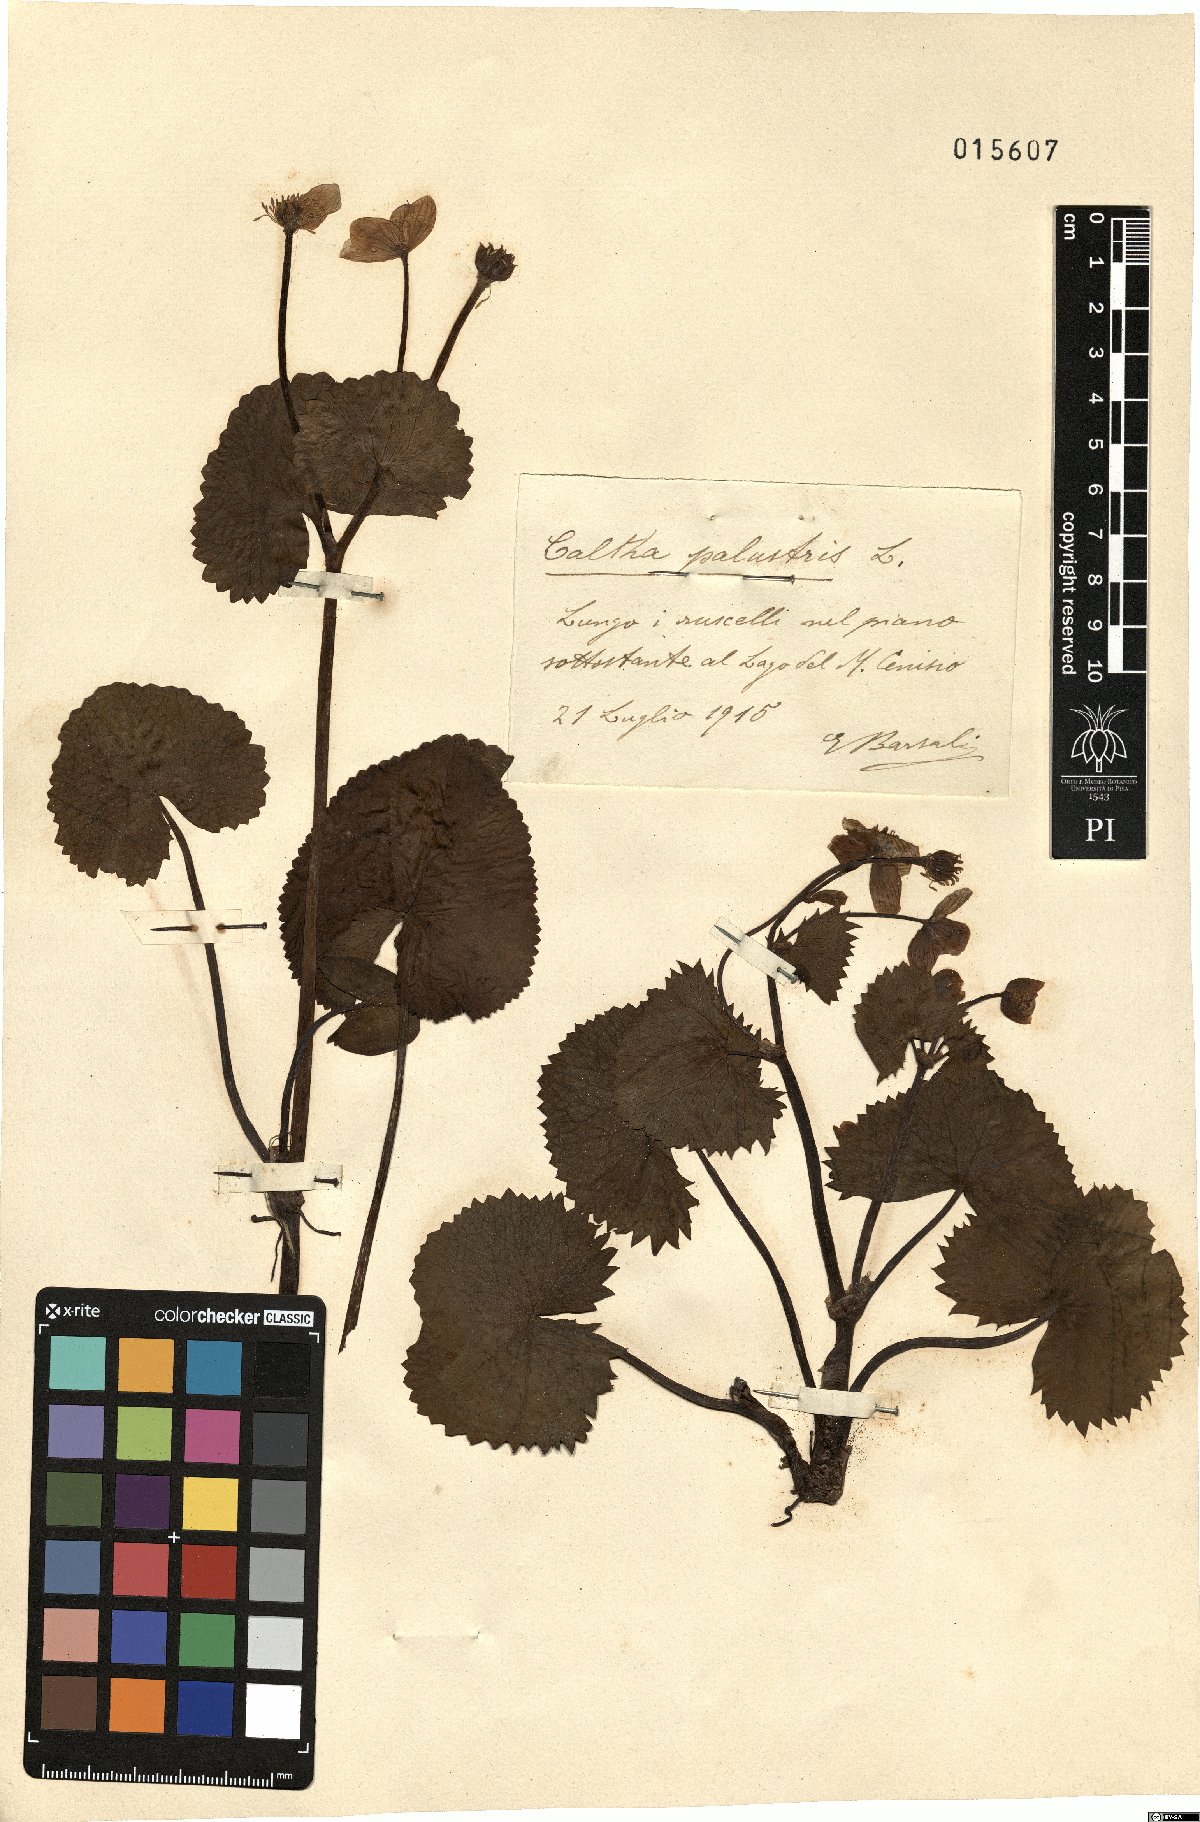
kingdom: Plantae
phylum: Tracheophyta
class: Magnoliopsida
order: Ranunculales
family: Ranunculaceae
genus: Caltha
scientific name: Caltha palustris
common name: Marsh marigold
